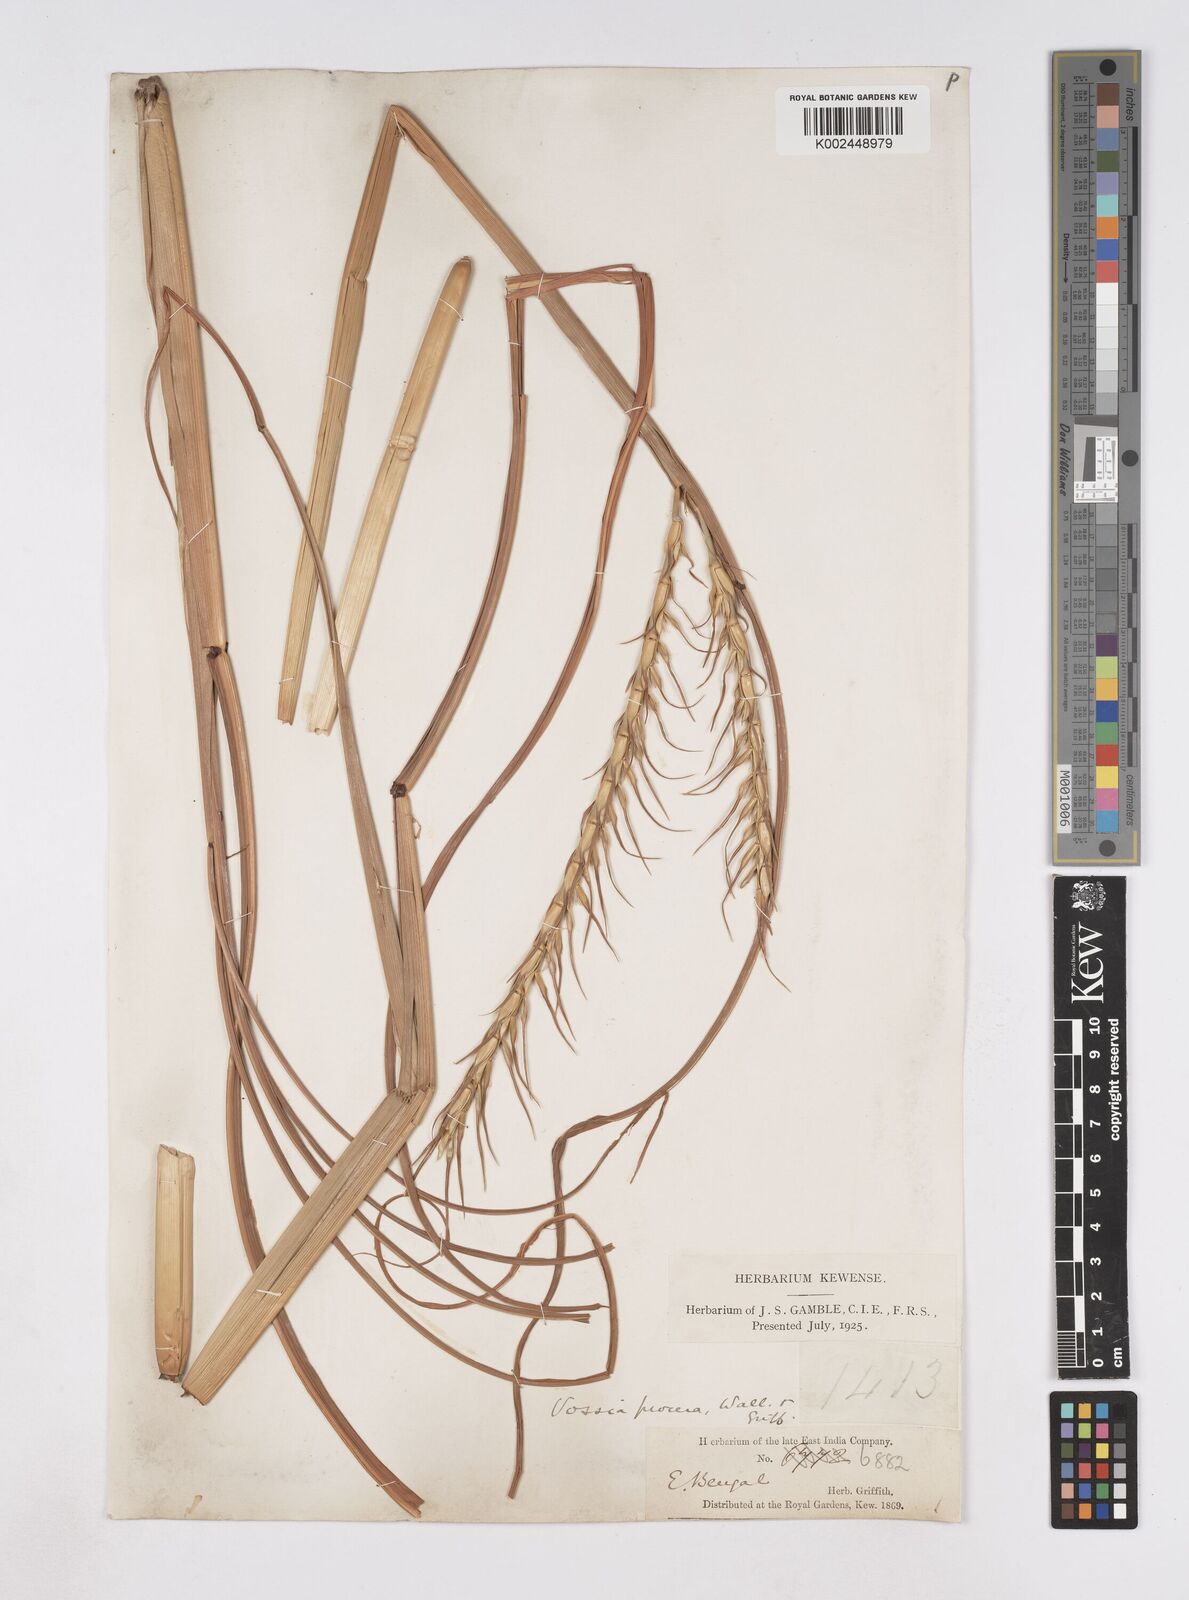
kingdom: Plantae
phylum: Tracheophyta
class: Liliopsida
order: Poales
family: Poaceae
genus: Vossia
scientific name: Vossia cuspidata
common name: Hippo grass
